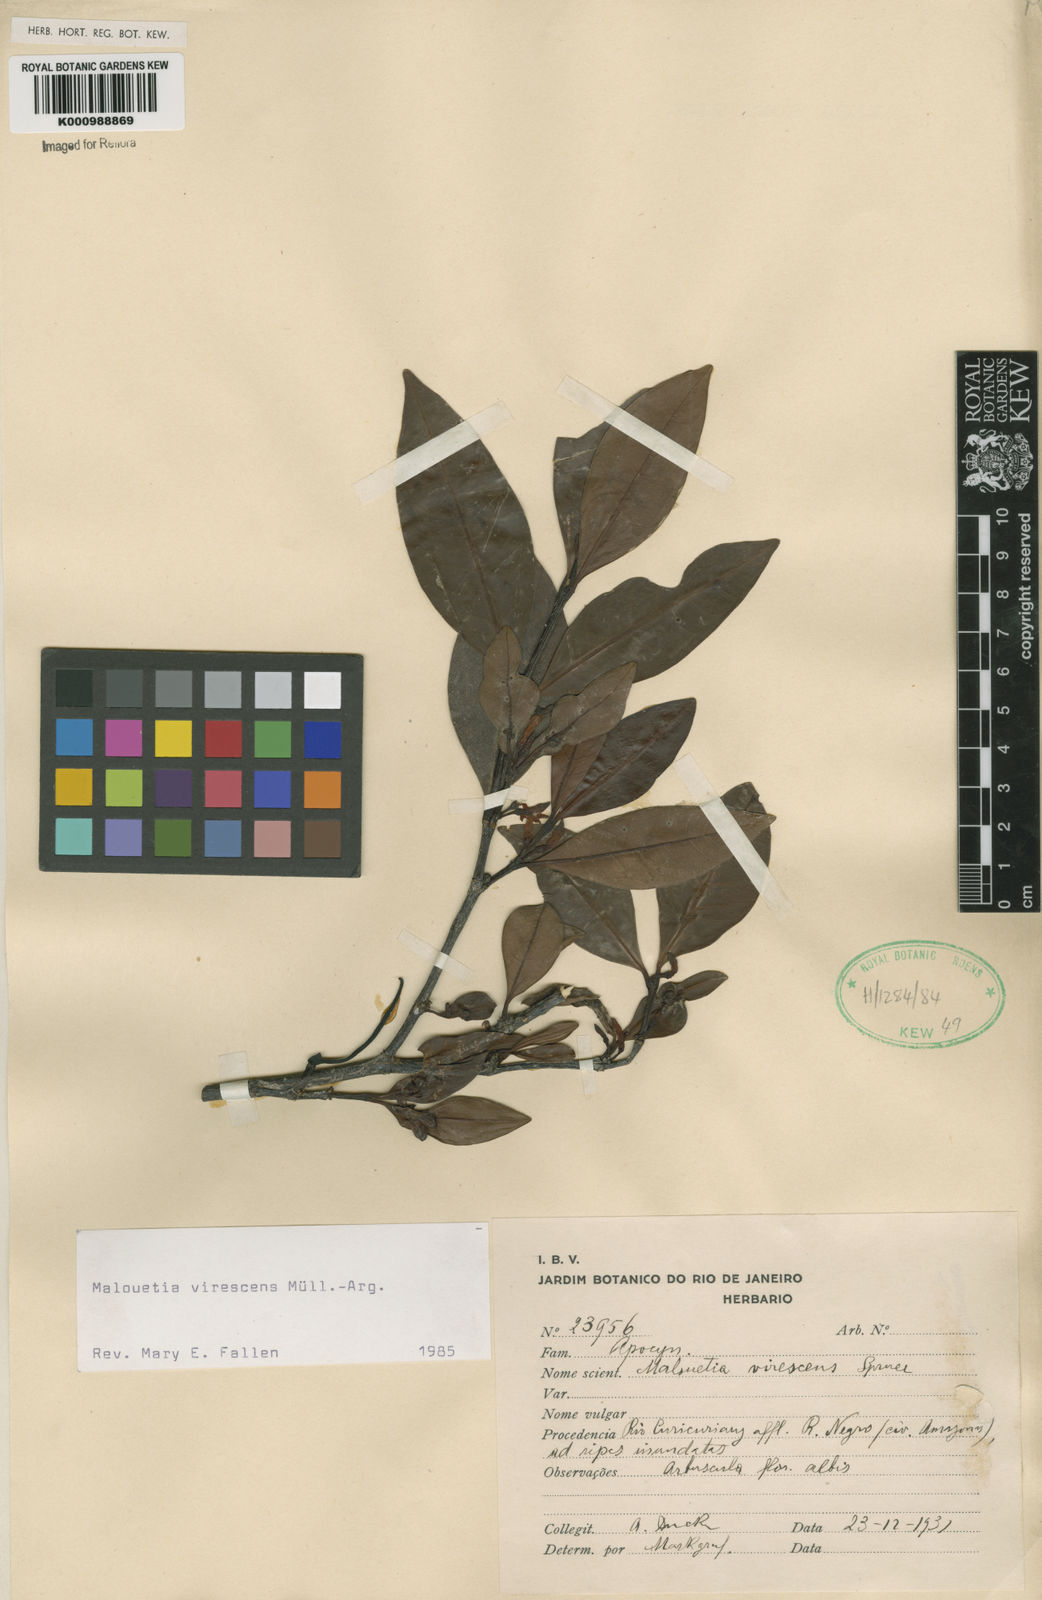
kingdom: Plantae
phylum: Tracheophyta
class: Magnoliopsida
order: Gentianales
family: Apocynaceae
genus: Malouetia
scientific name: Malouetia
